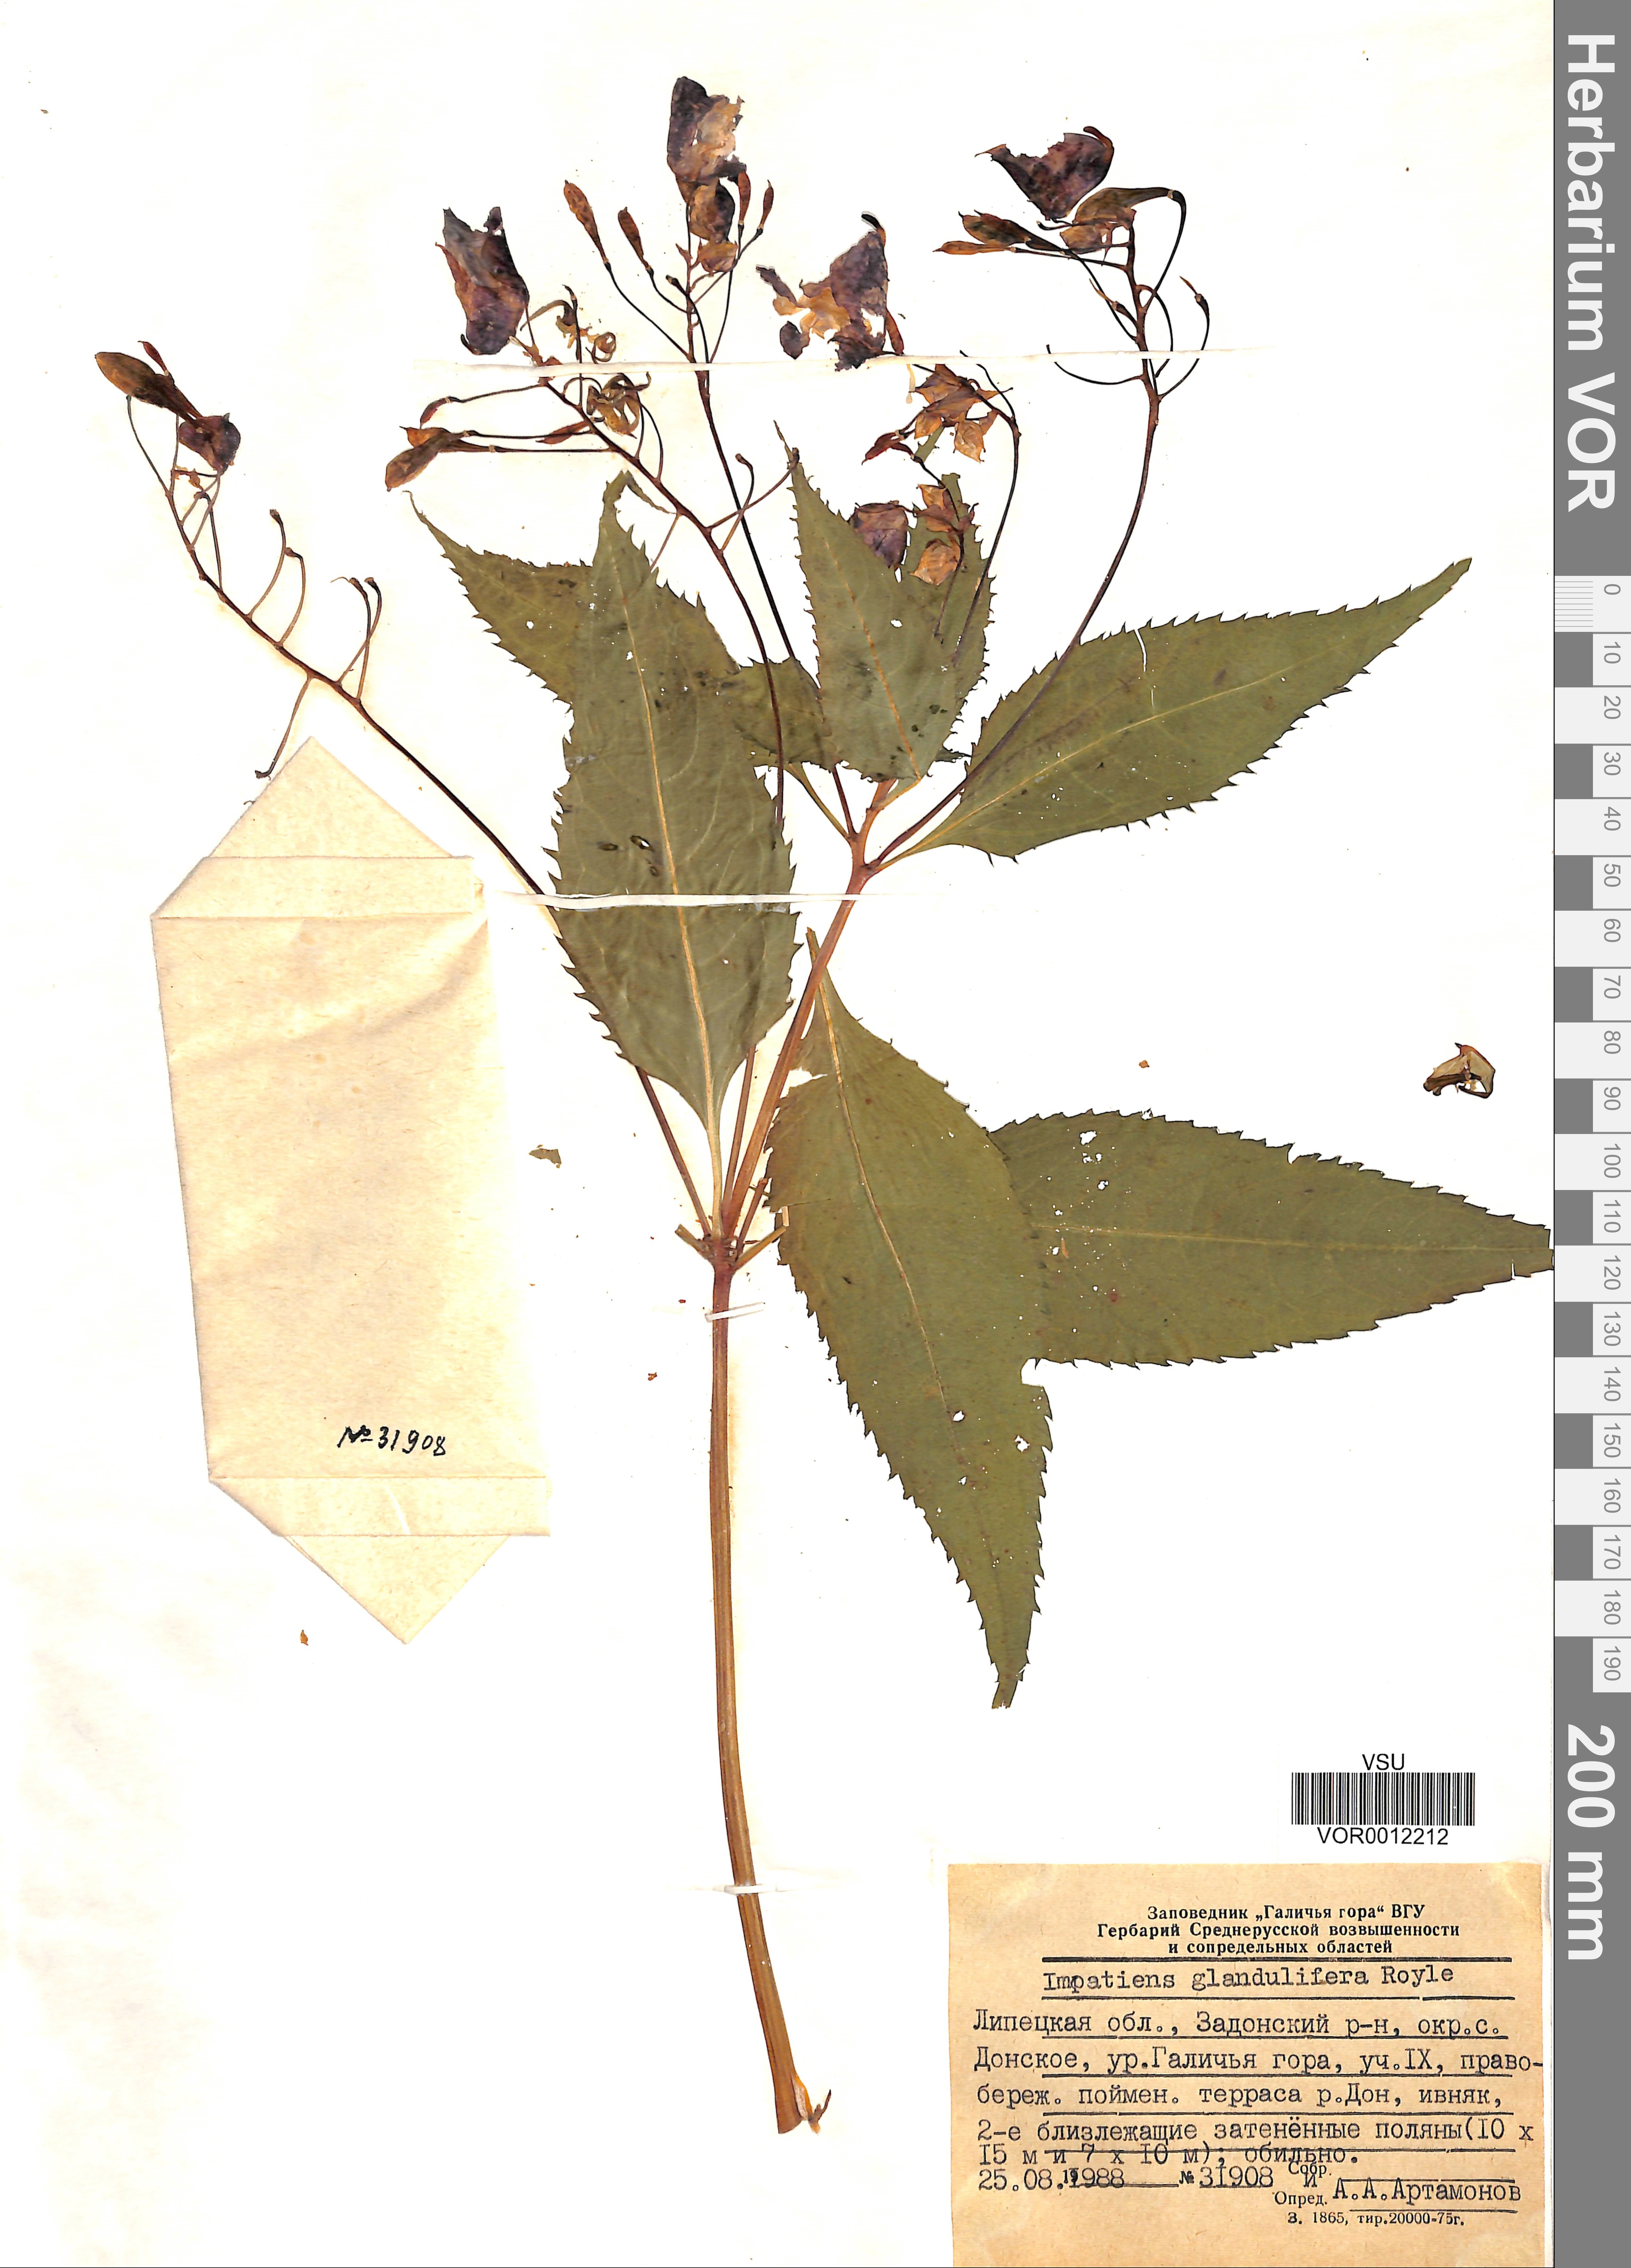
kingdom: Plantae
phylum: Tracheophyta
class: Magnoliopsida
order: Ericales
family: Balsaminaceae
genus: Impatiens
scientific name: Impatiens glandulifera
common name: Himalayan balsam
